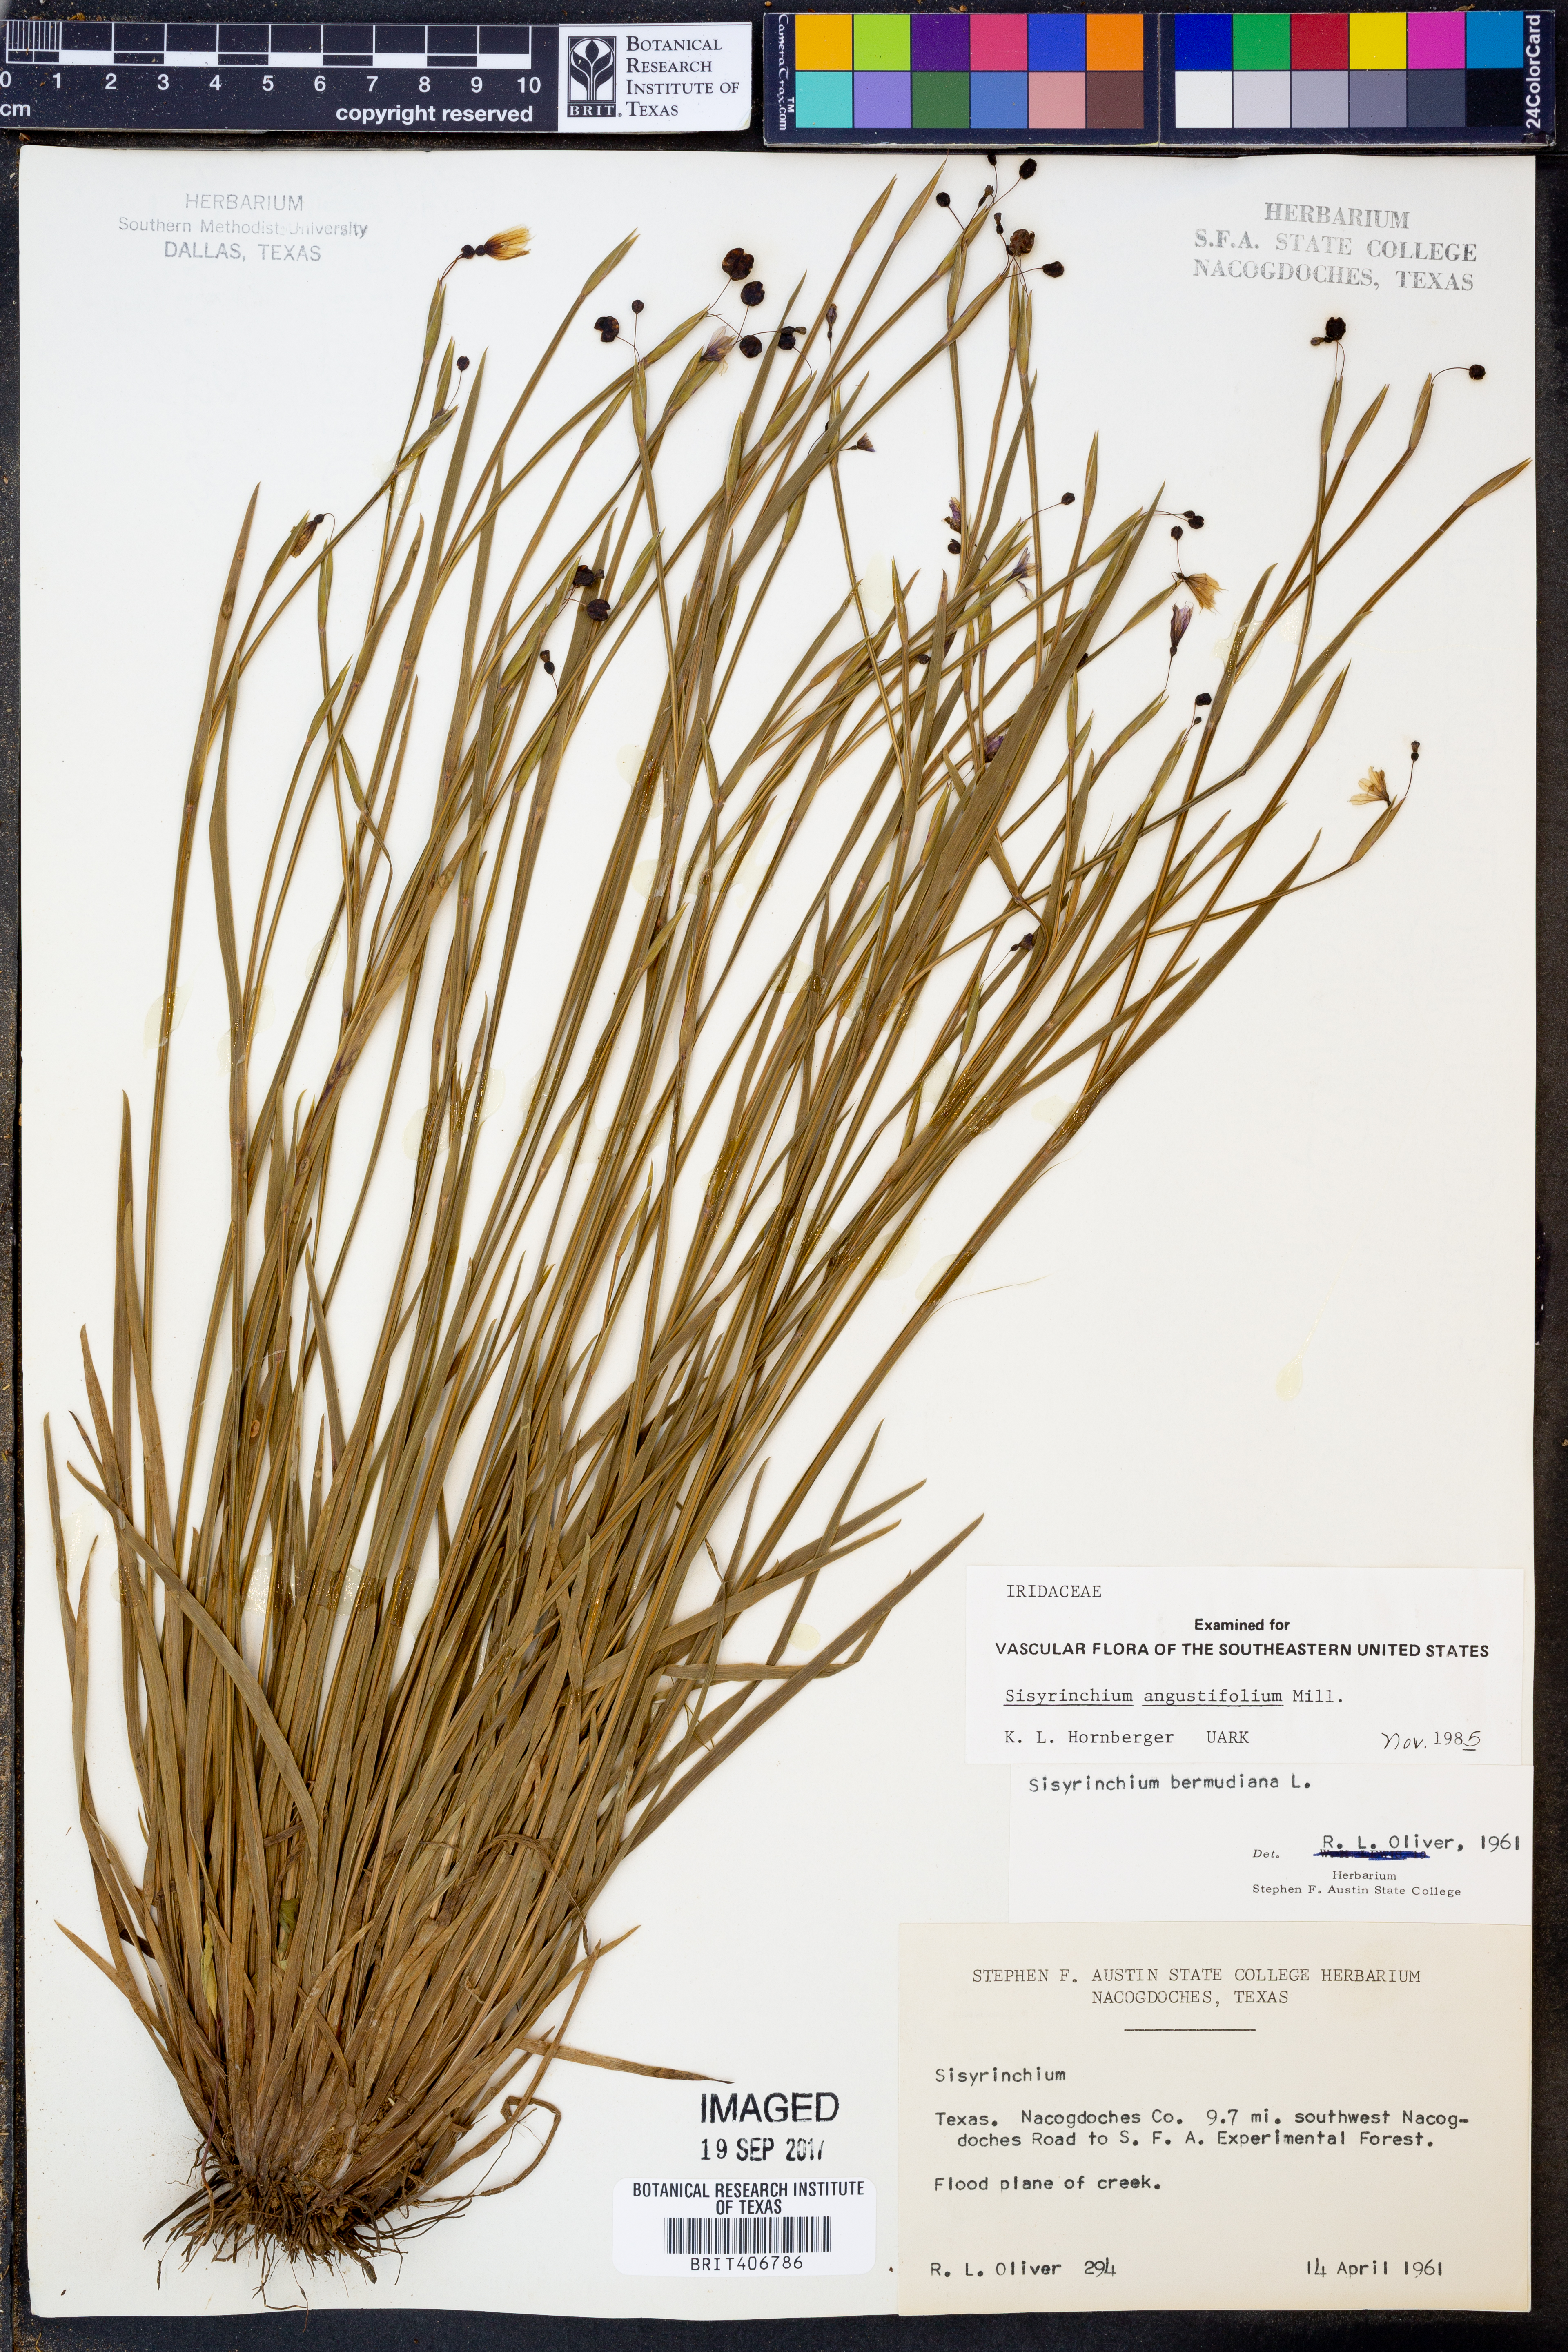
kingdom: Plantae
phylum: Tracheophyta
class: Liliopsida
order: Asparagales
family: Iridaceae
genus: Sisyrinchium
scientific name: Sisyrinchium angustifolium
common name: Narrow-leaf blue-eyed-grass
